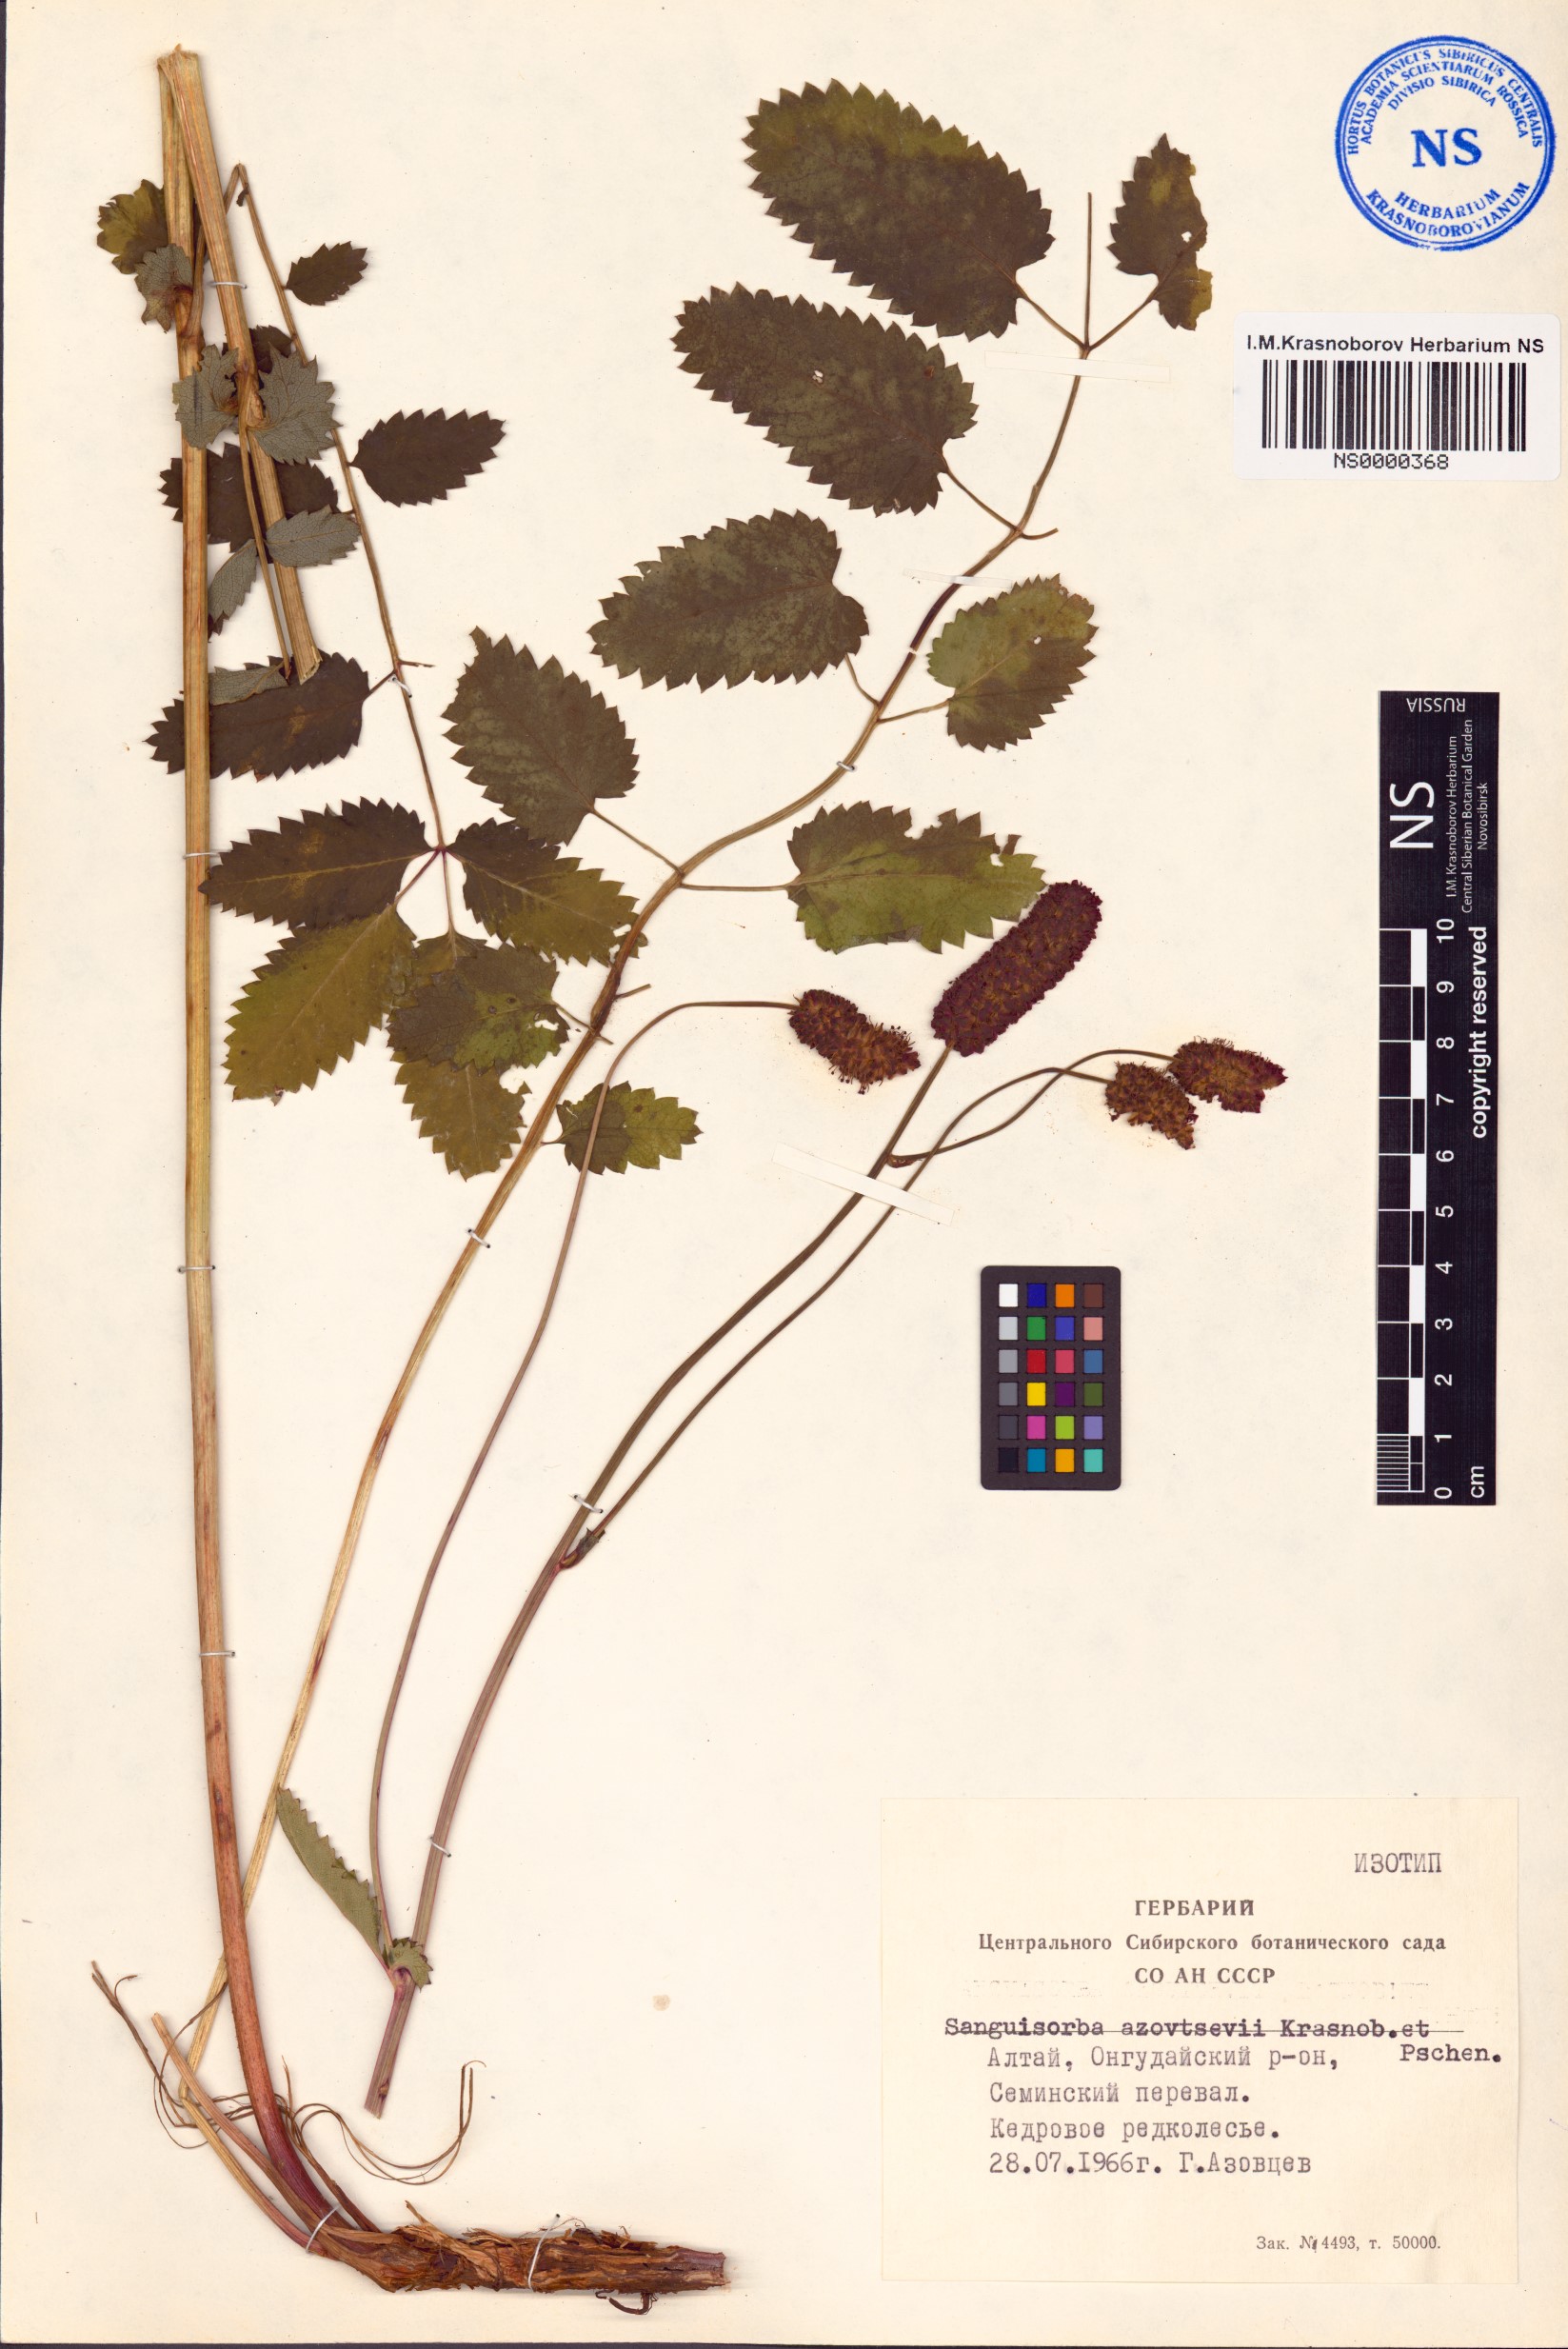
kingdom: Plantae
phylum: Tracheophyta
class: Magnoliopsida
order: Rosales
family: Rosaceae
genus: Sanguisorba
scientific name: Sanguisorba azovtsevii
